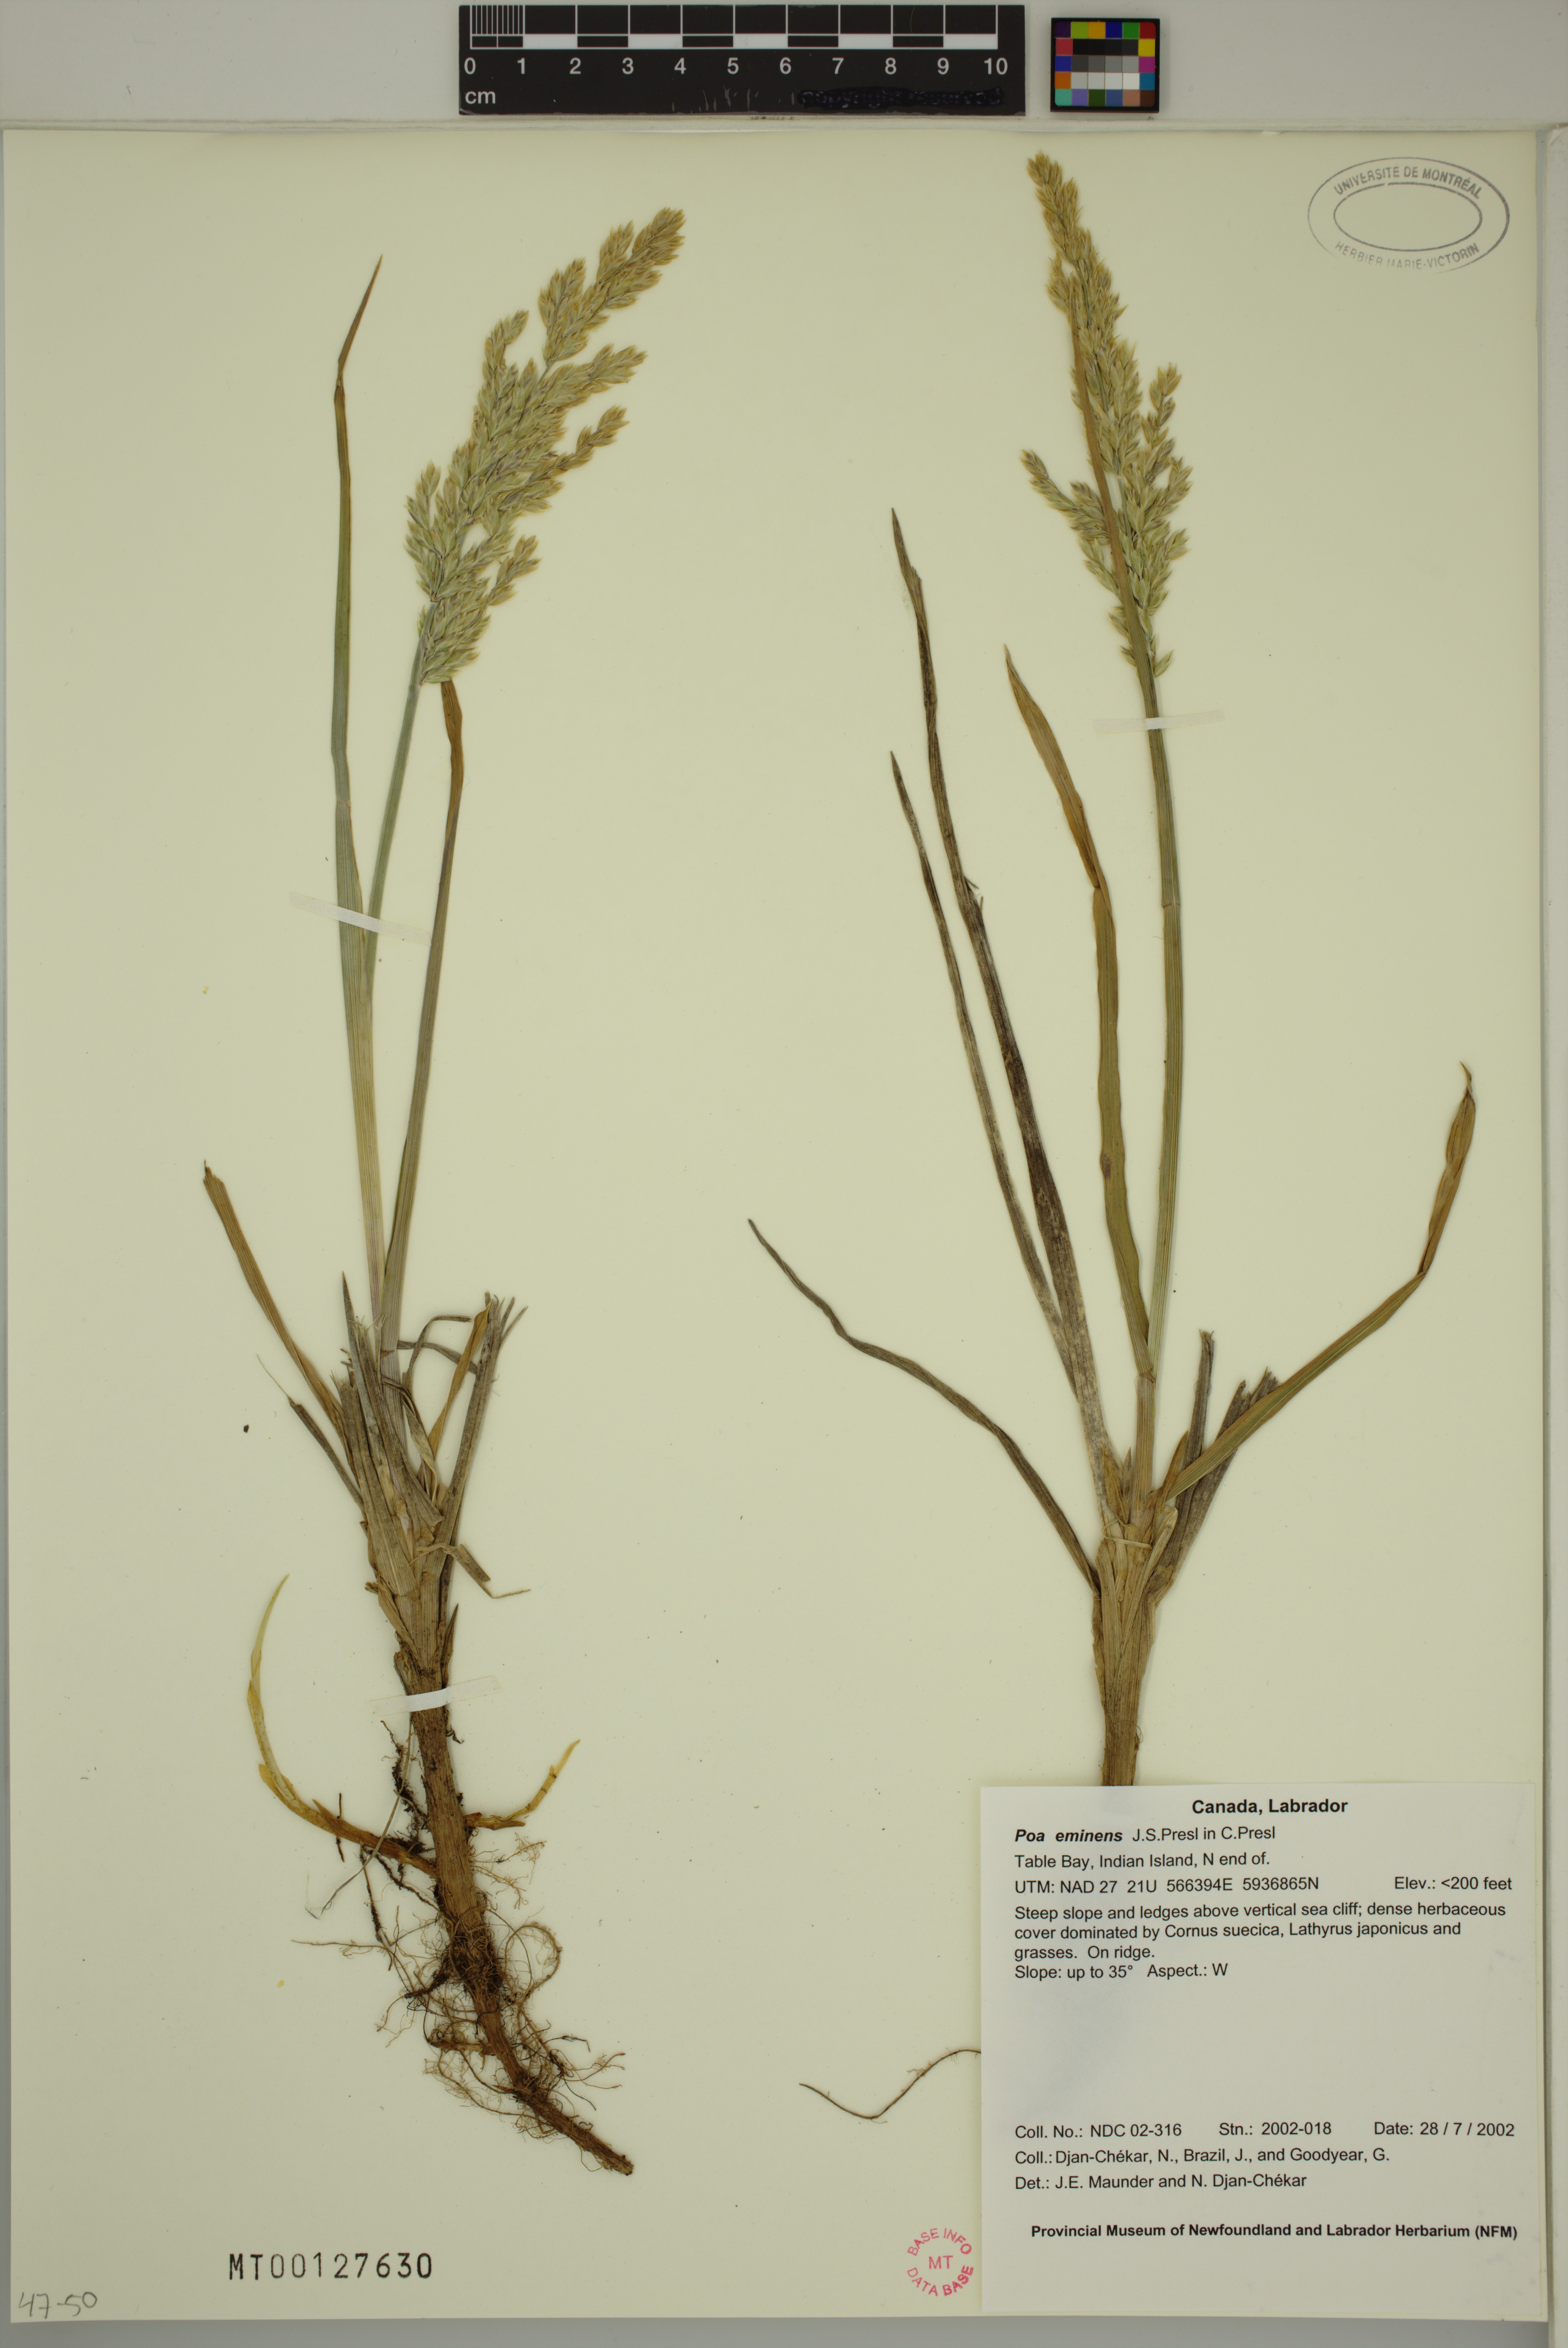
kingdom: Plantae
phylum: Tracheophyta
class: Liliopsida
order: Poales
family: Poaceae
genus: Arctopoa
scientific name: Arctopoa eminens
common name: Eminent bluegrass
